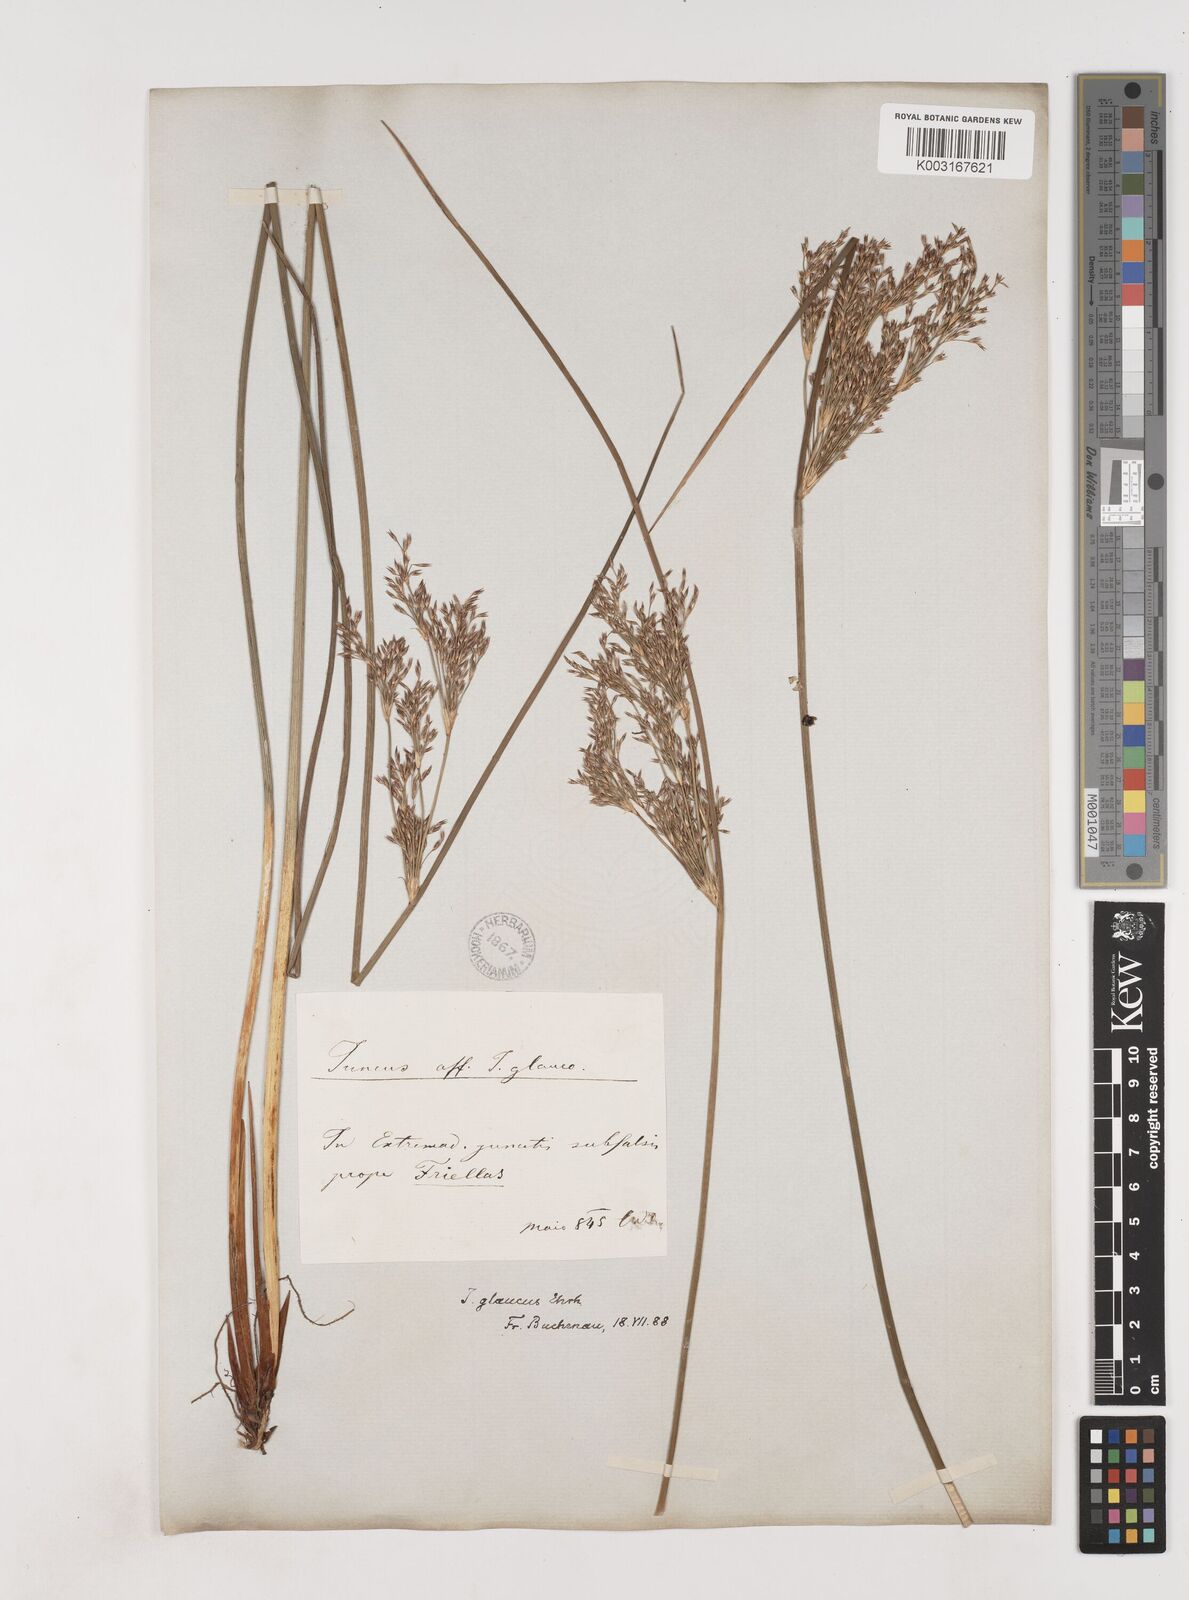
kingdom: Plantae
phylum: Tracheophyta
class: Liliopsida
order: Poales
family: Juncaceae
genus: Juncus
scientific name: Juncus inflexus
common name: Hard rush
